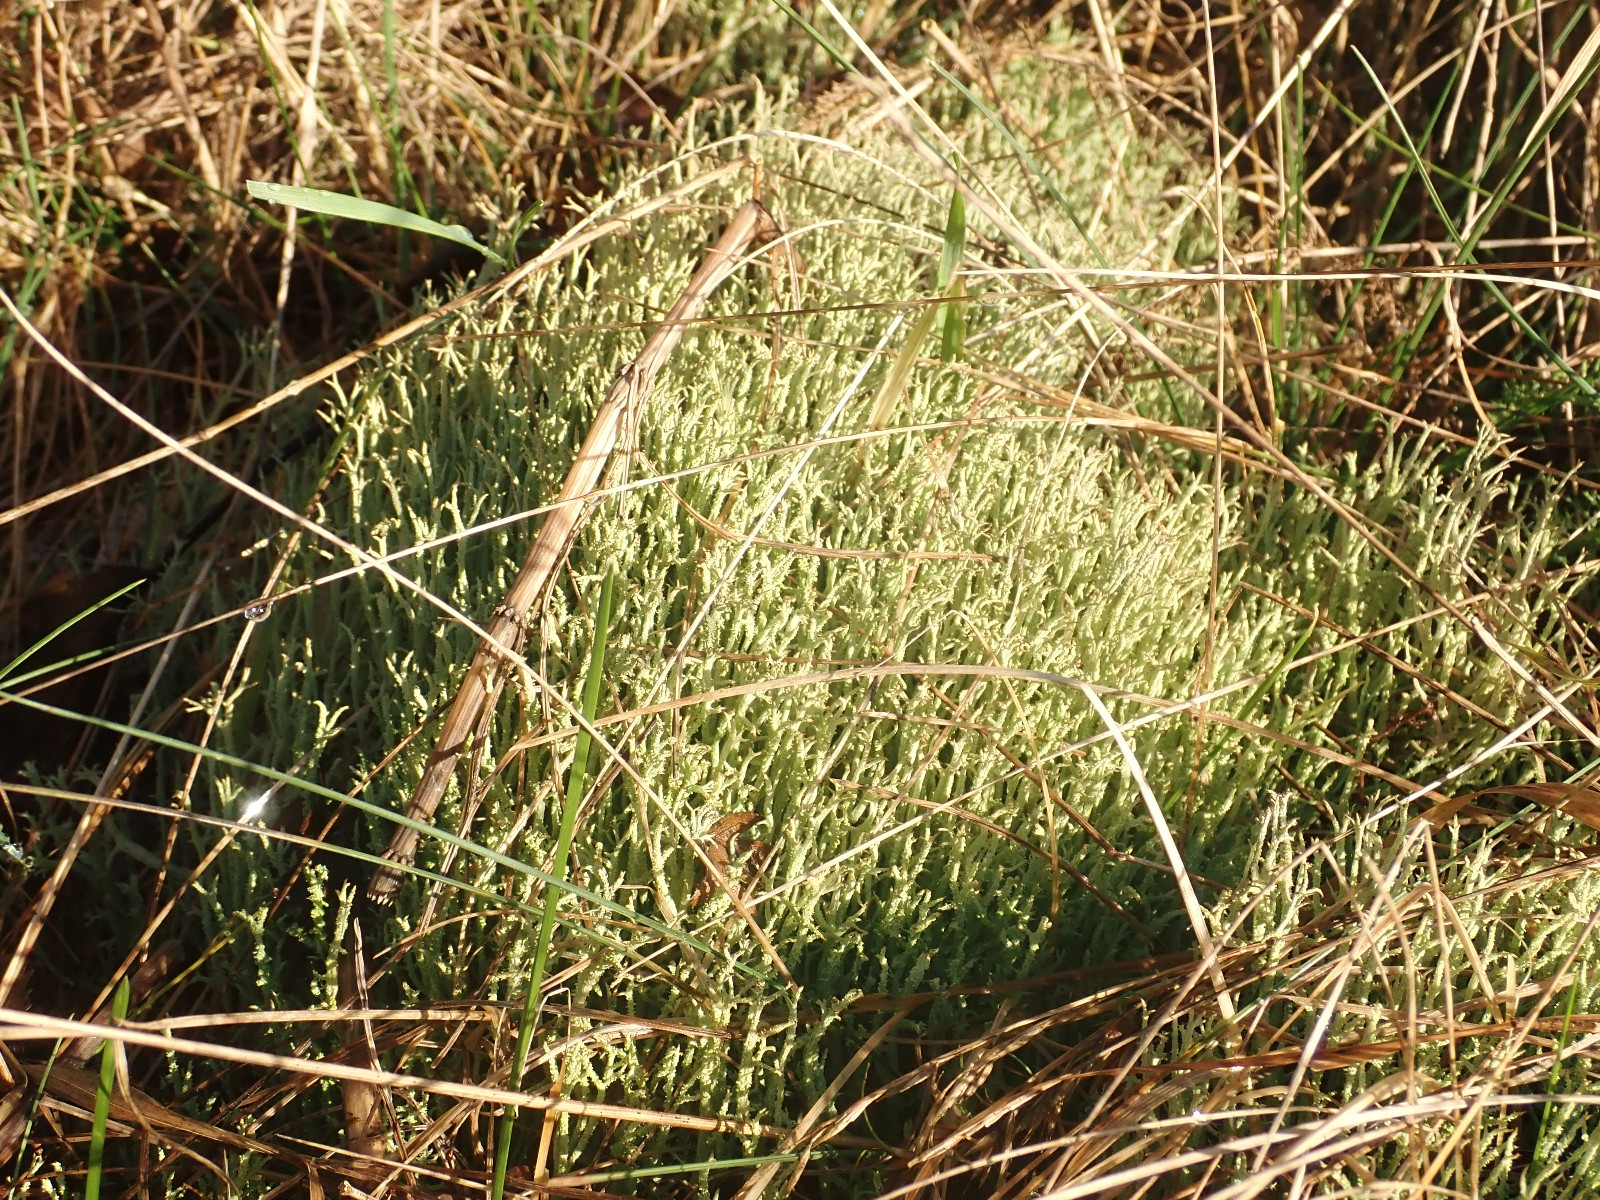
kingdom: Fungi
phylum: Ascomycota
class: Lecanoromycetes
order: Lecanorales
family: Cladoniaceae
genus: Cladonia
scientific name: Cladonia scabriuscula
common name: ru bægerlav
